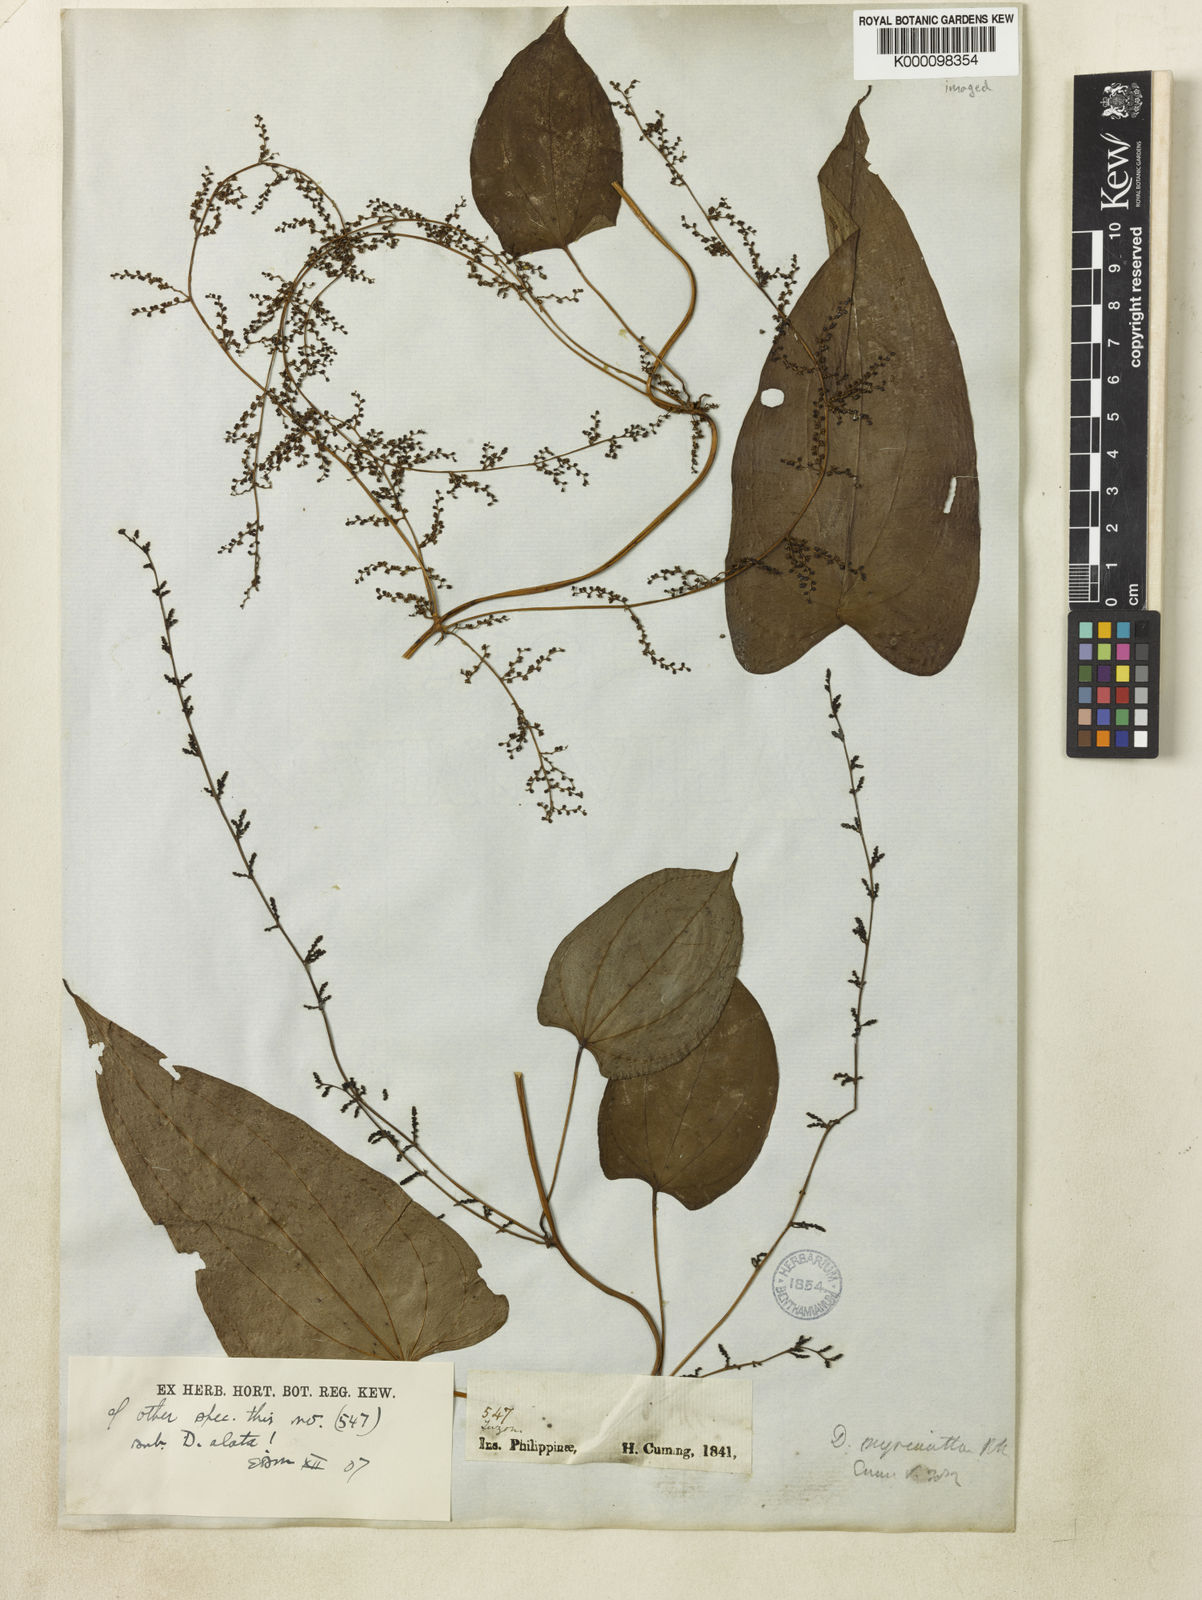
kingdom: Plantae
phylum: Tracheophyta
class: Liliopsida
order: Dioscoreales
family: Dioscoreaceae
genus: Dioscorea
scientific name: Dioscorea filiformis
